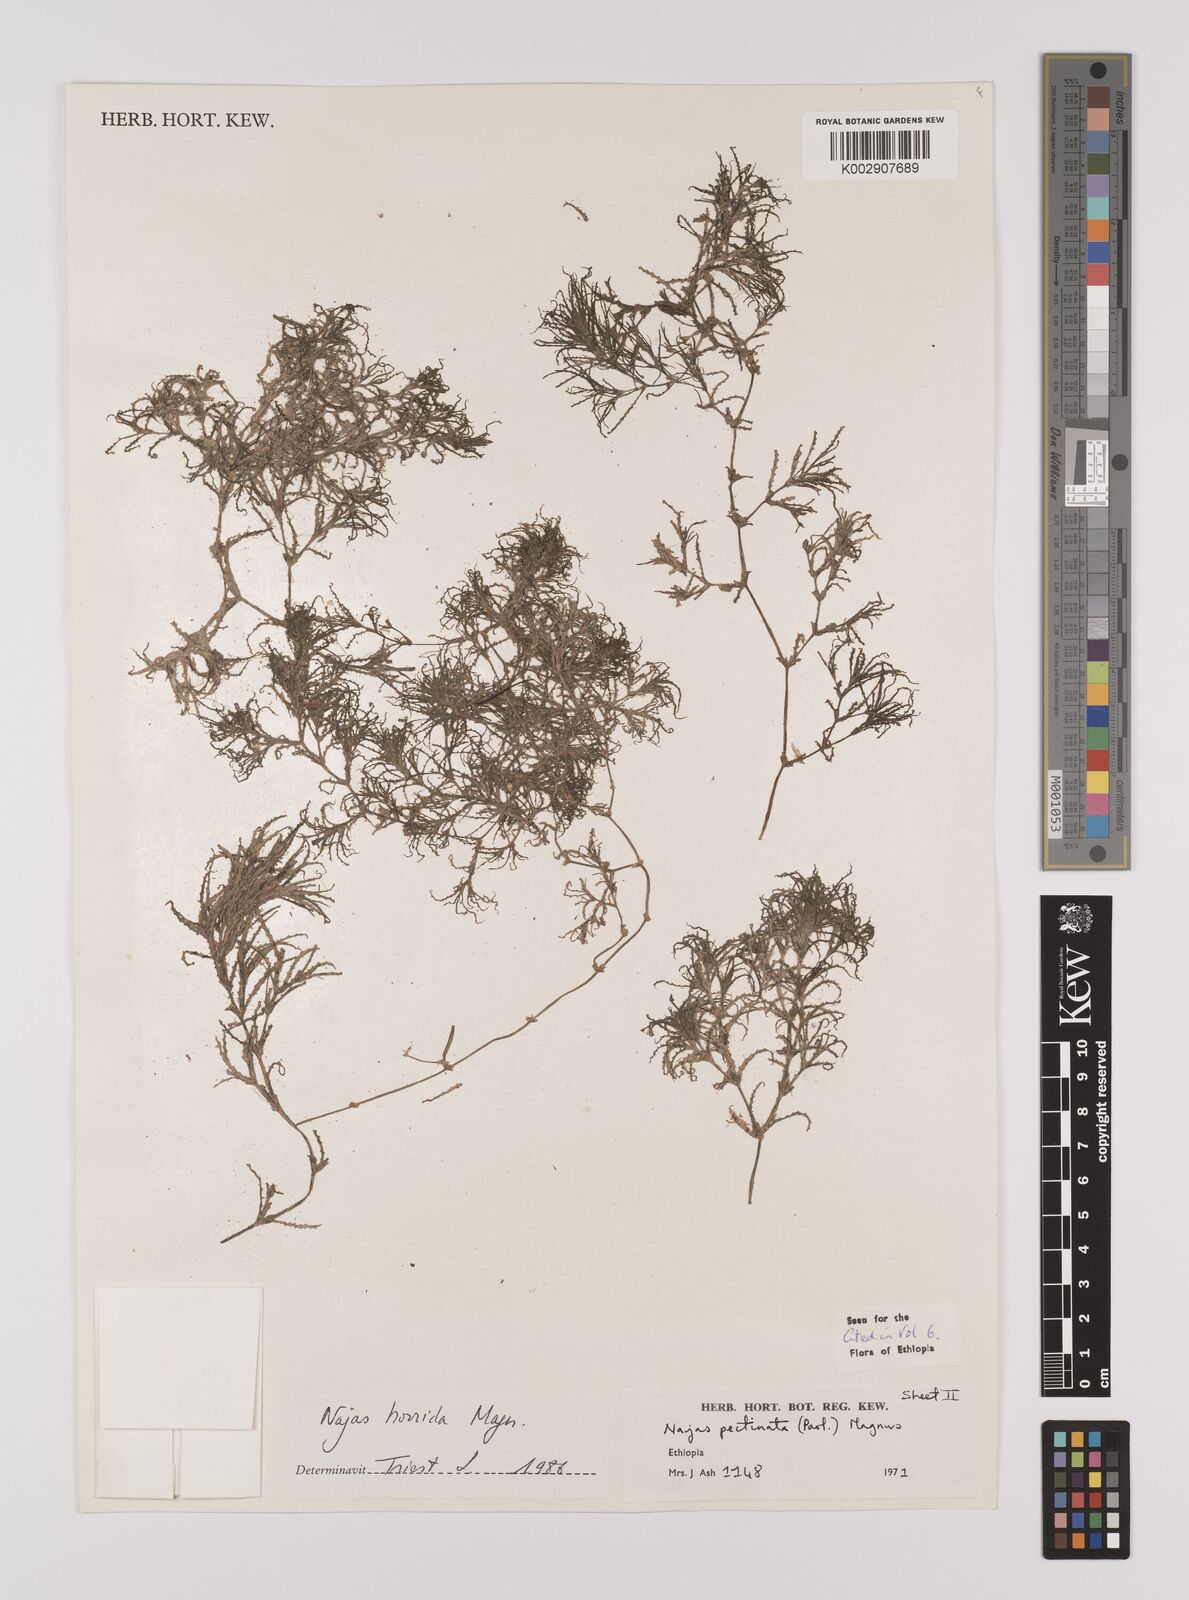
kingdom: Plantae
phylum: Tracheophyta
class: Liliopsida
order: Alismatales
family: Hydrocharitaceae
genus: Najas
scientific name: Najas horrida
